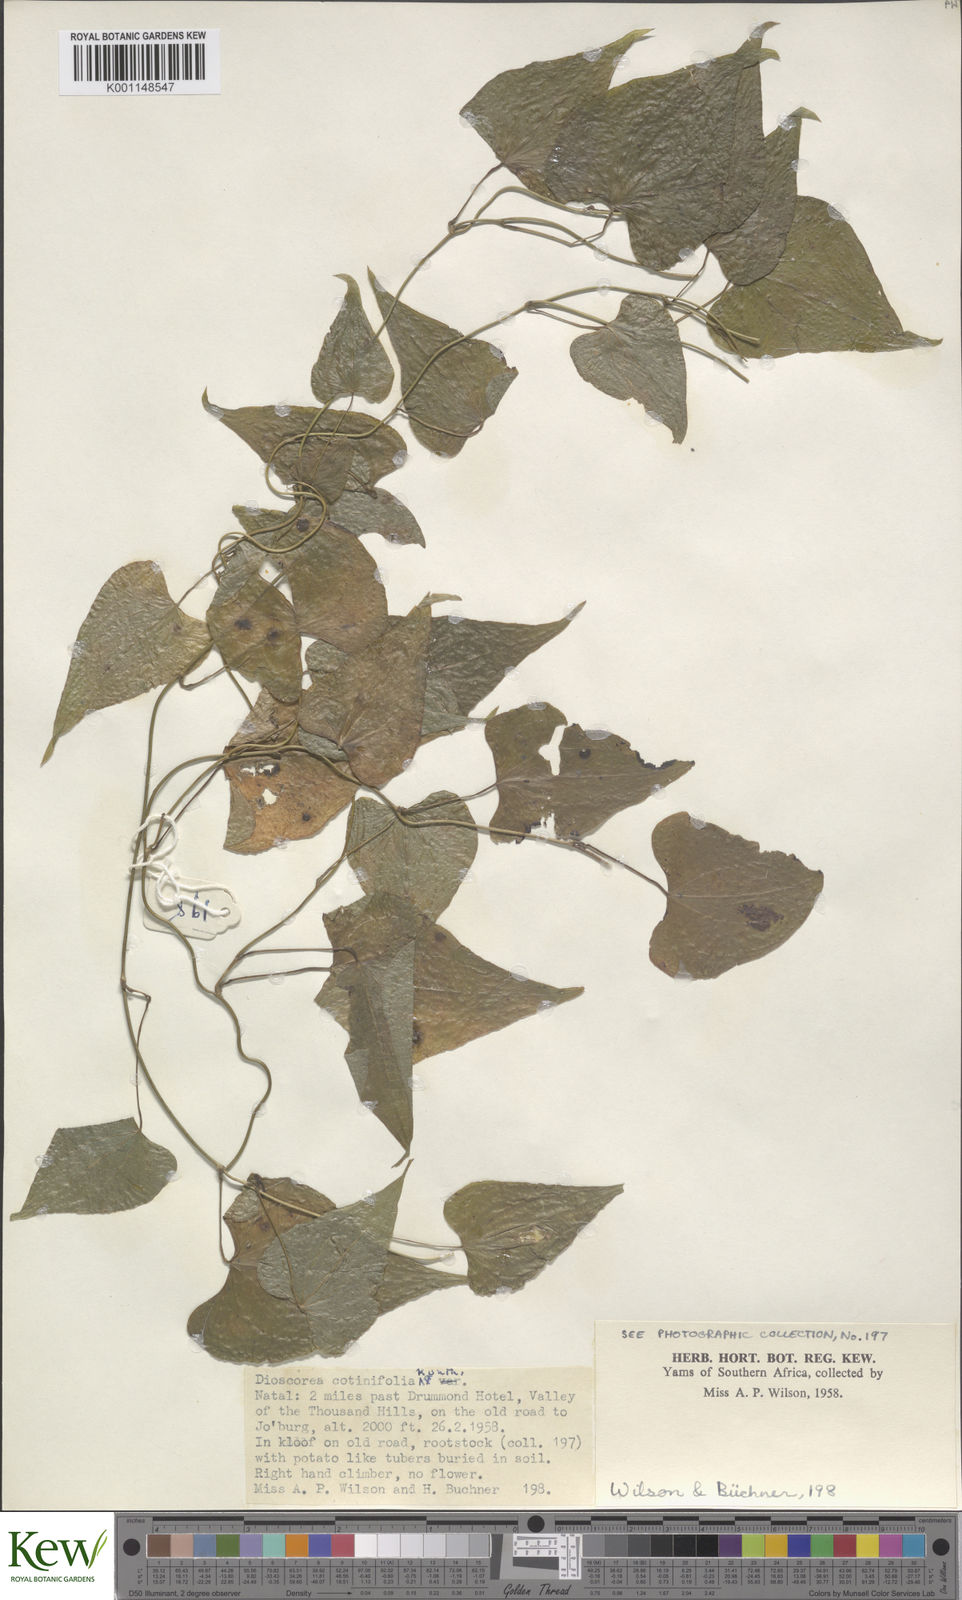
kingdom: Plantae
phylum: Tracheophyta
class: Liliopsida
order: Dioscoreales
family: Dioscoreaceae
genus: Dioscorea
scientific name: Dioscorea cotinifolia
